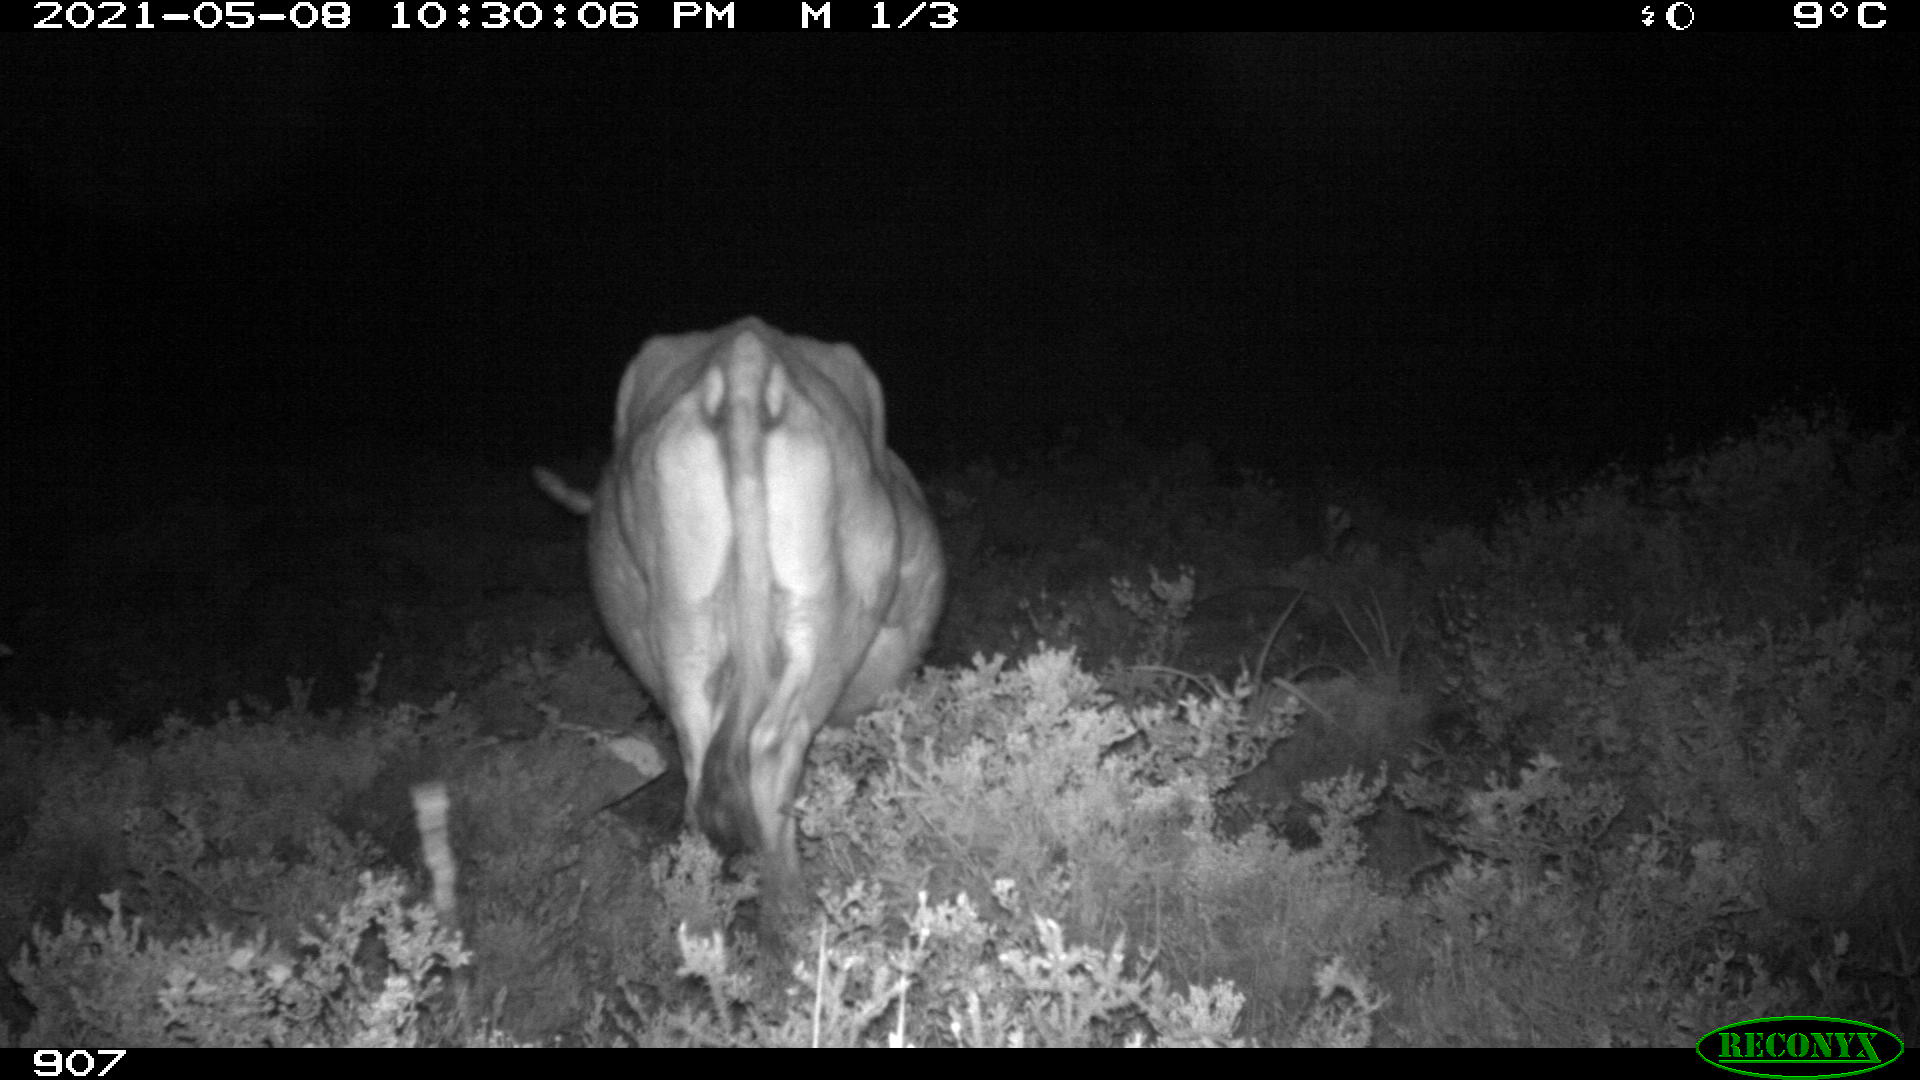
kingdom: Animalia
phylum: Chordata
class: Mammalia
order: Artiodactyla
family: Bovidae
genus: Bos
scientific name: Bos taurus
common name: Domesticated cattle
